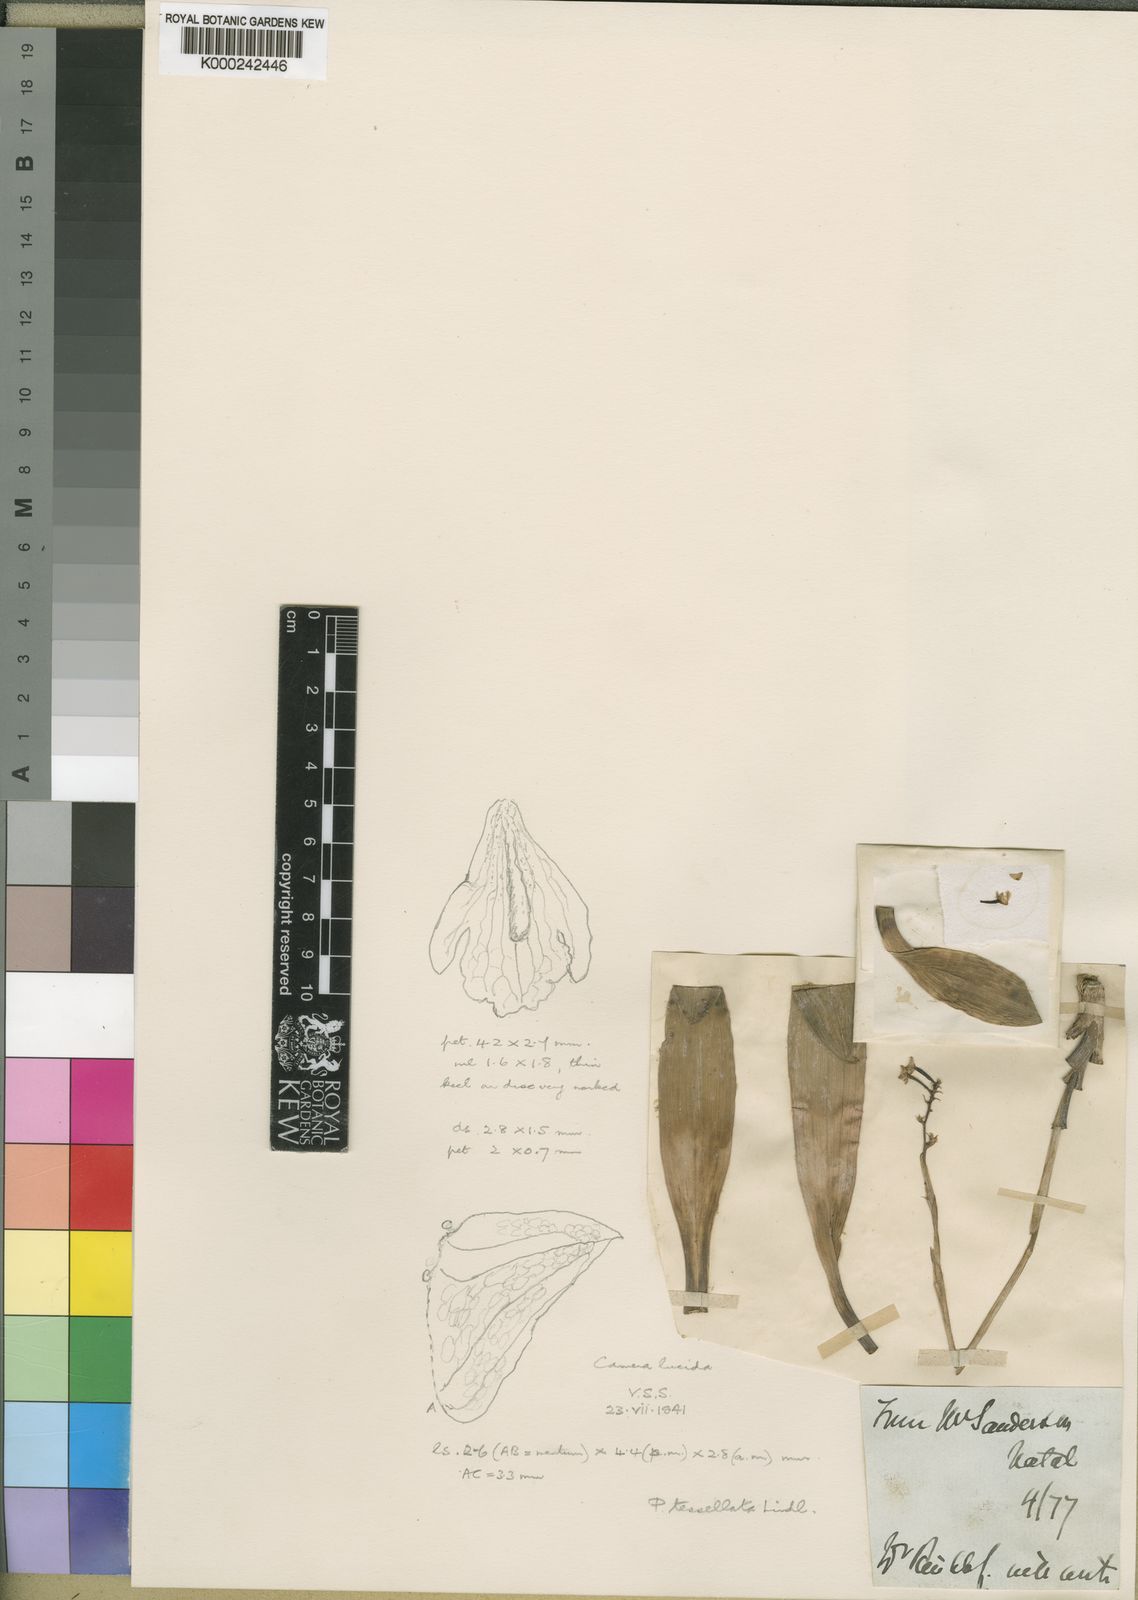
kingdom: Plantae
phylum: Tracheophyta
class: Liliopsida
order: Asparagales
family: Orchidaceae
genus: Polystachya
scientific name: Polystachya concreta
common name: Greater yellowspike orchid
